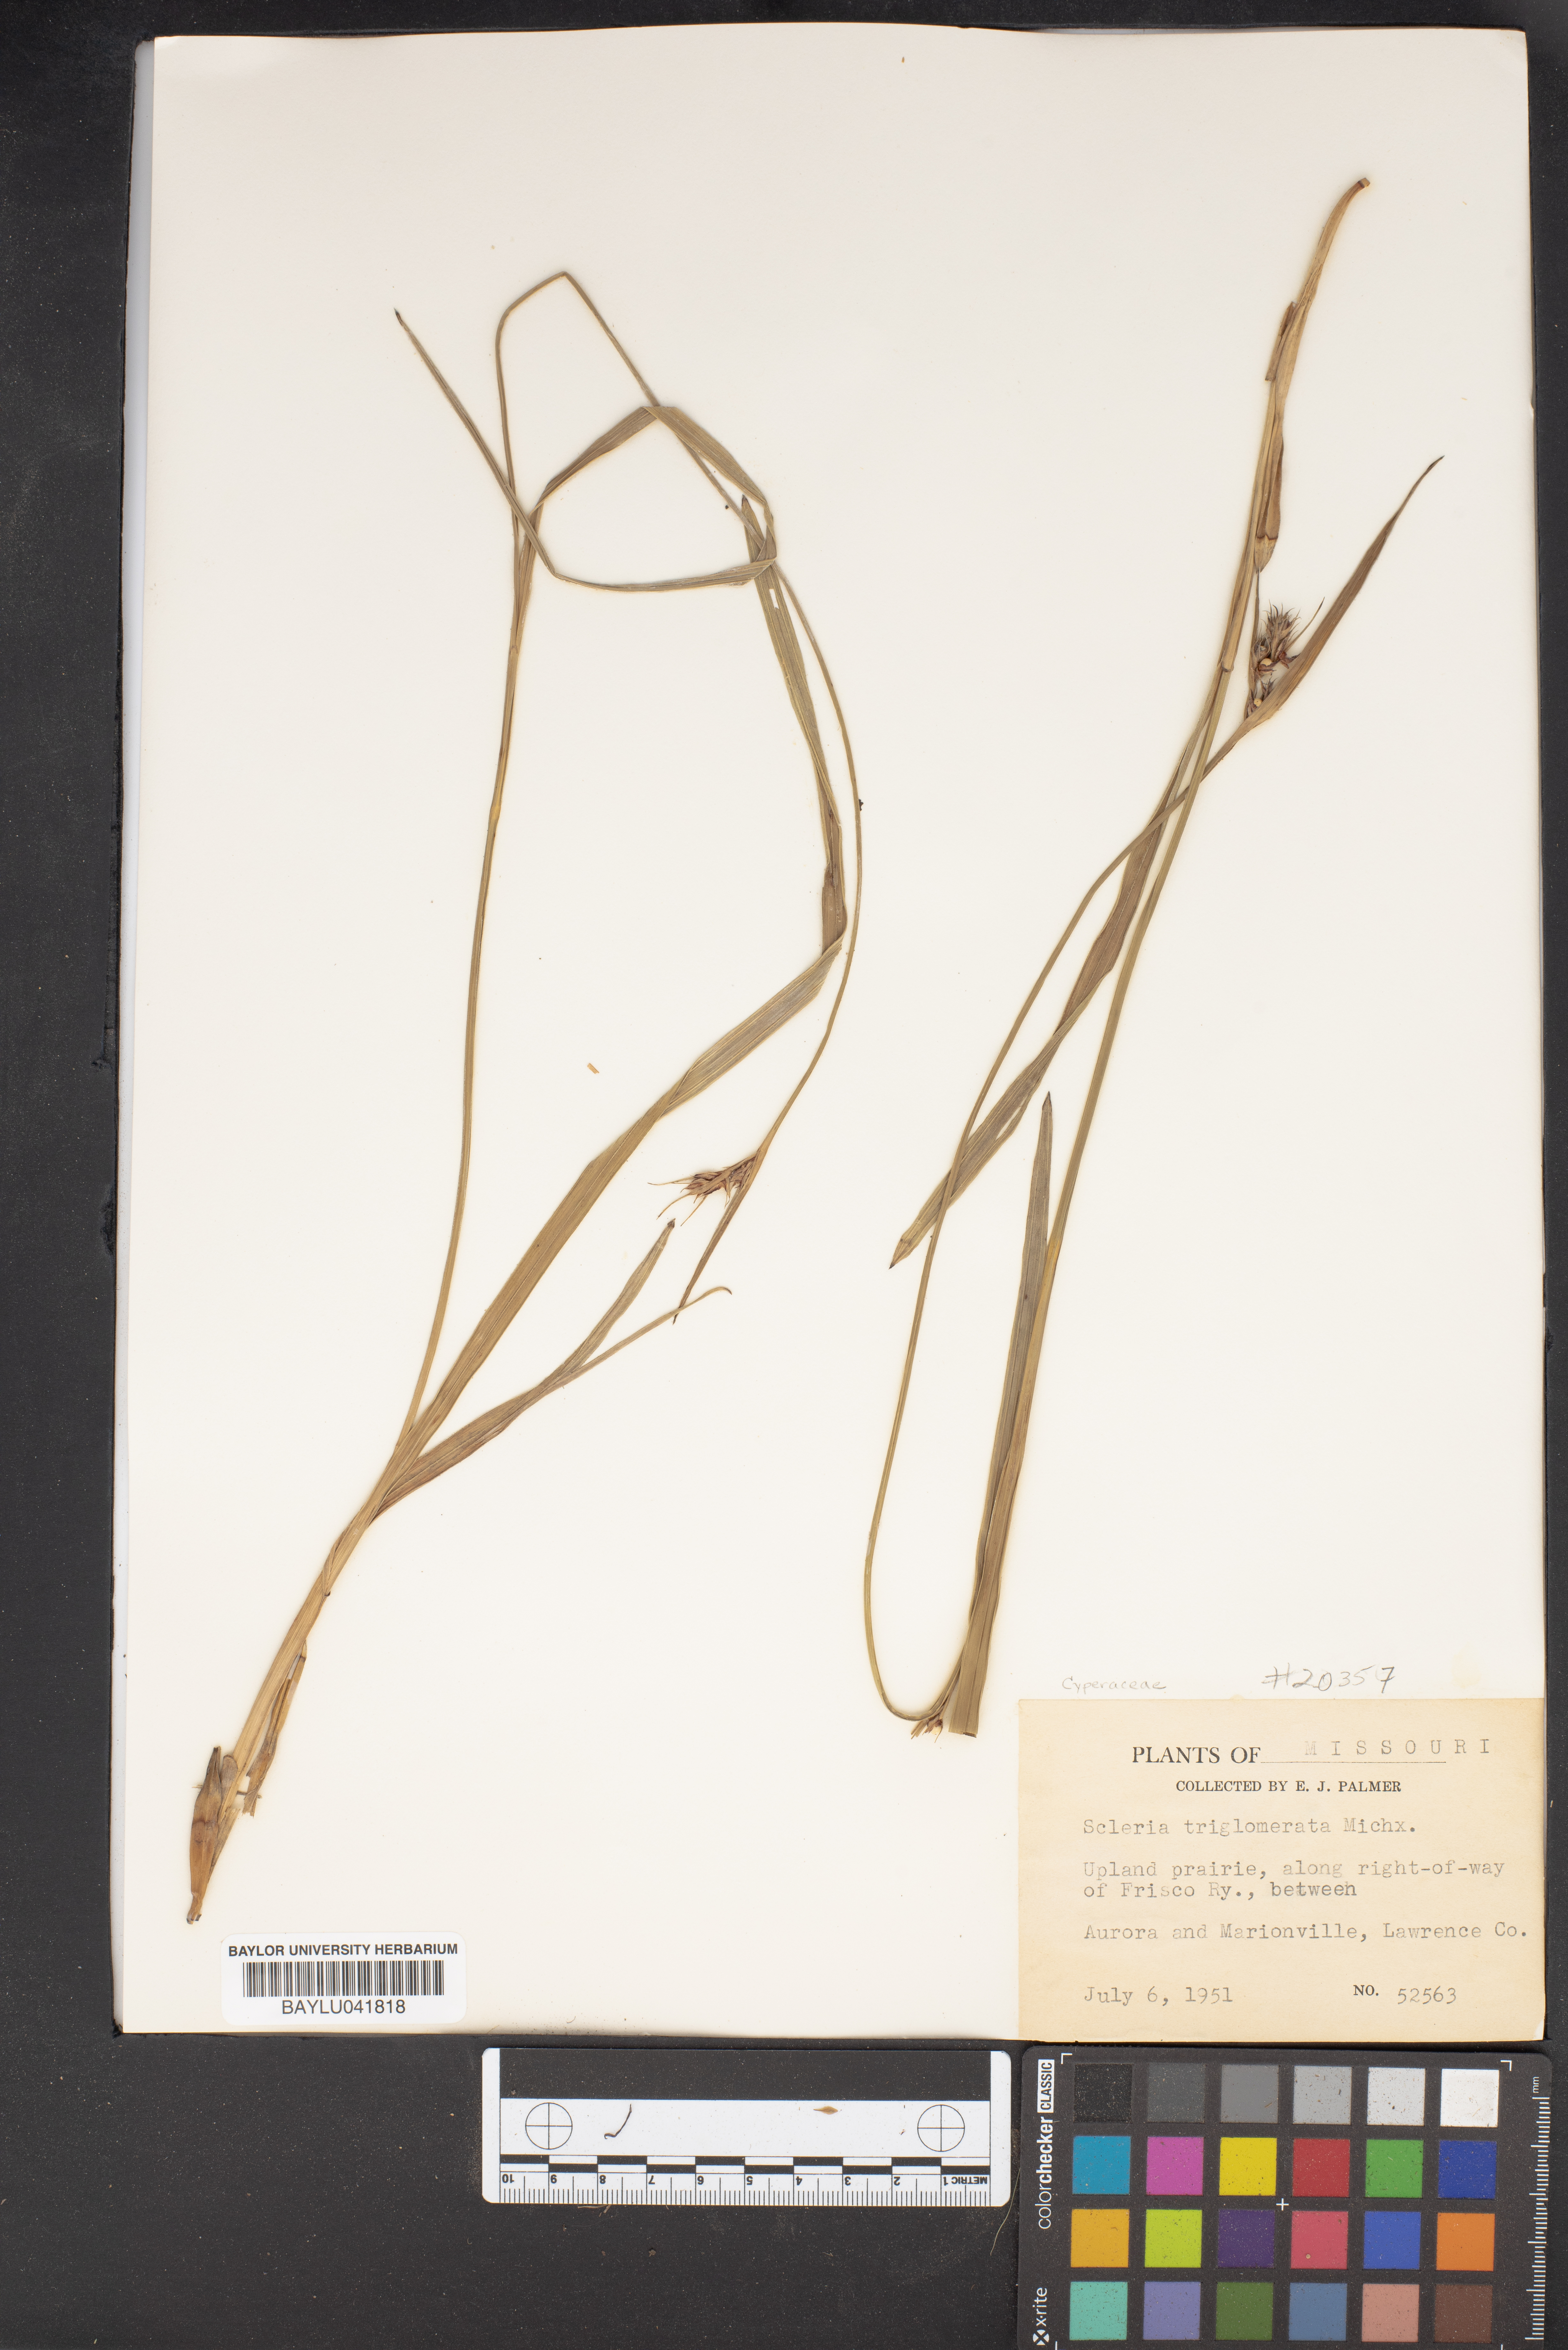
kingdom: Plantae
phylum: Tracheophyta
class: Liliopsida
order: Poales
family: Cyperaceae
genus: Scleria
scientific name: Scleria triglomerata
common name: Whip nutrush
